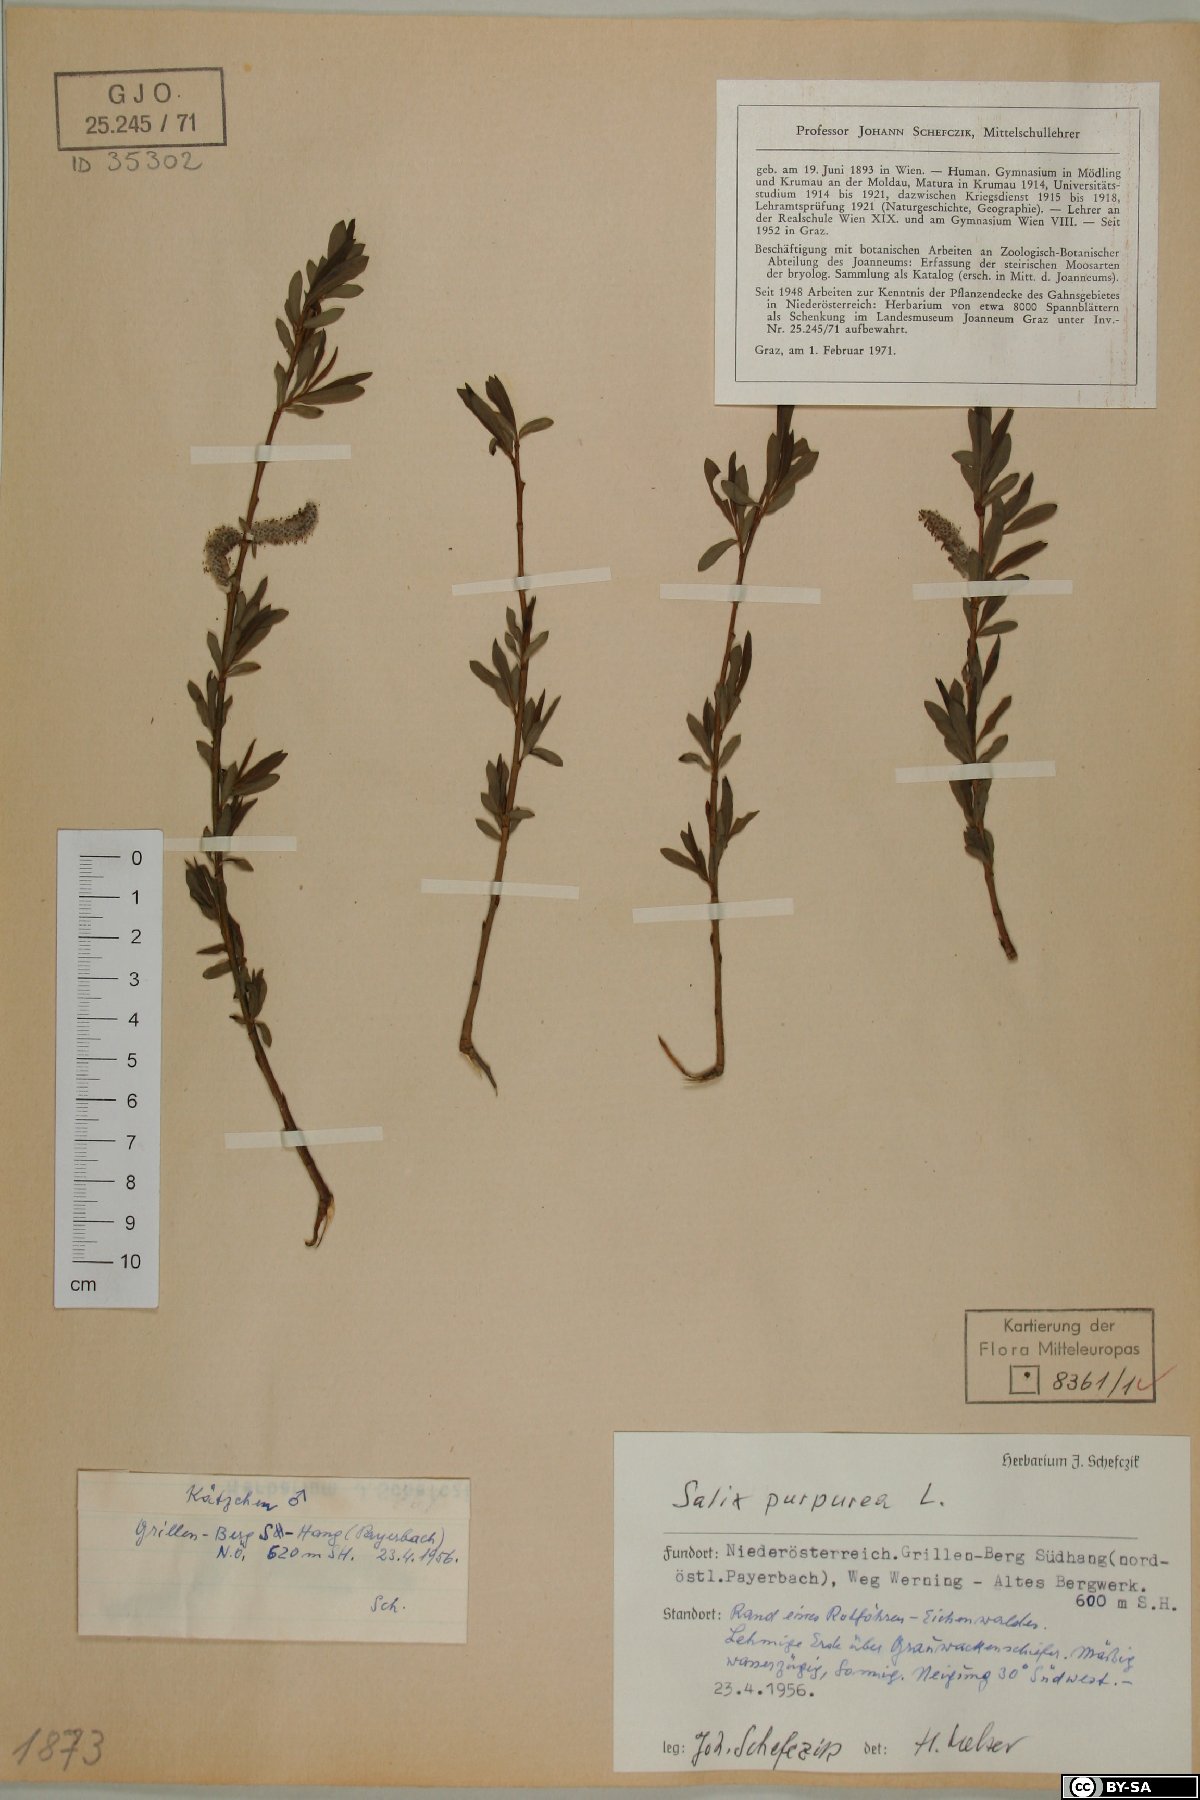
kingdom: Plantae
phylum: Tracheophyta
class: Magnoliopsida
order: Malpighiales
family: Salicaceae
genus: Salix
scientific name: Salix purpurea
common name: Purple willow
